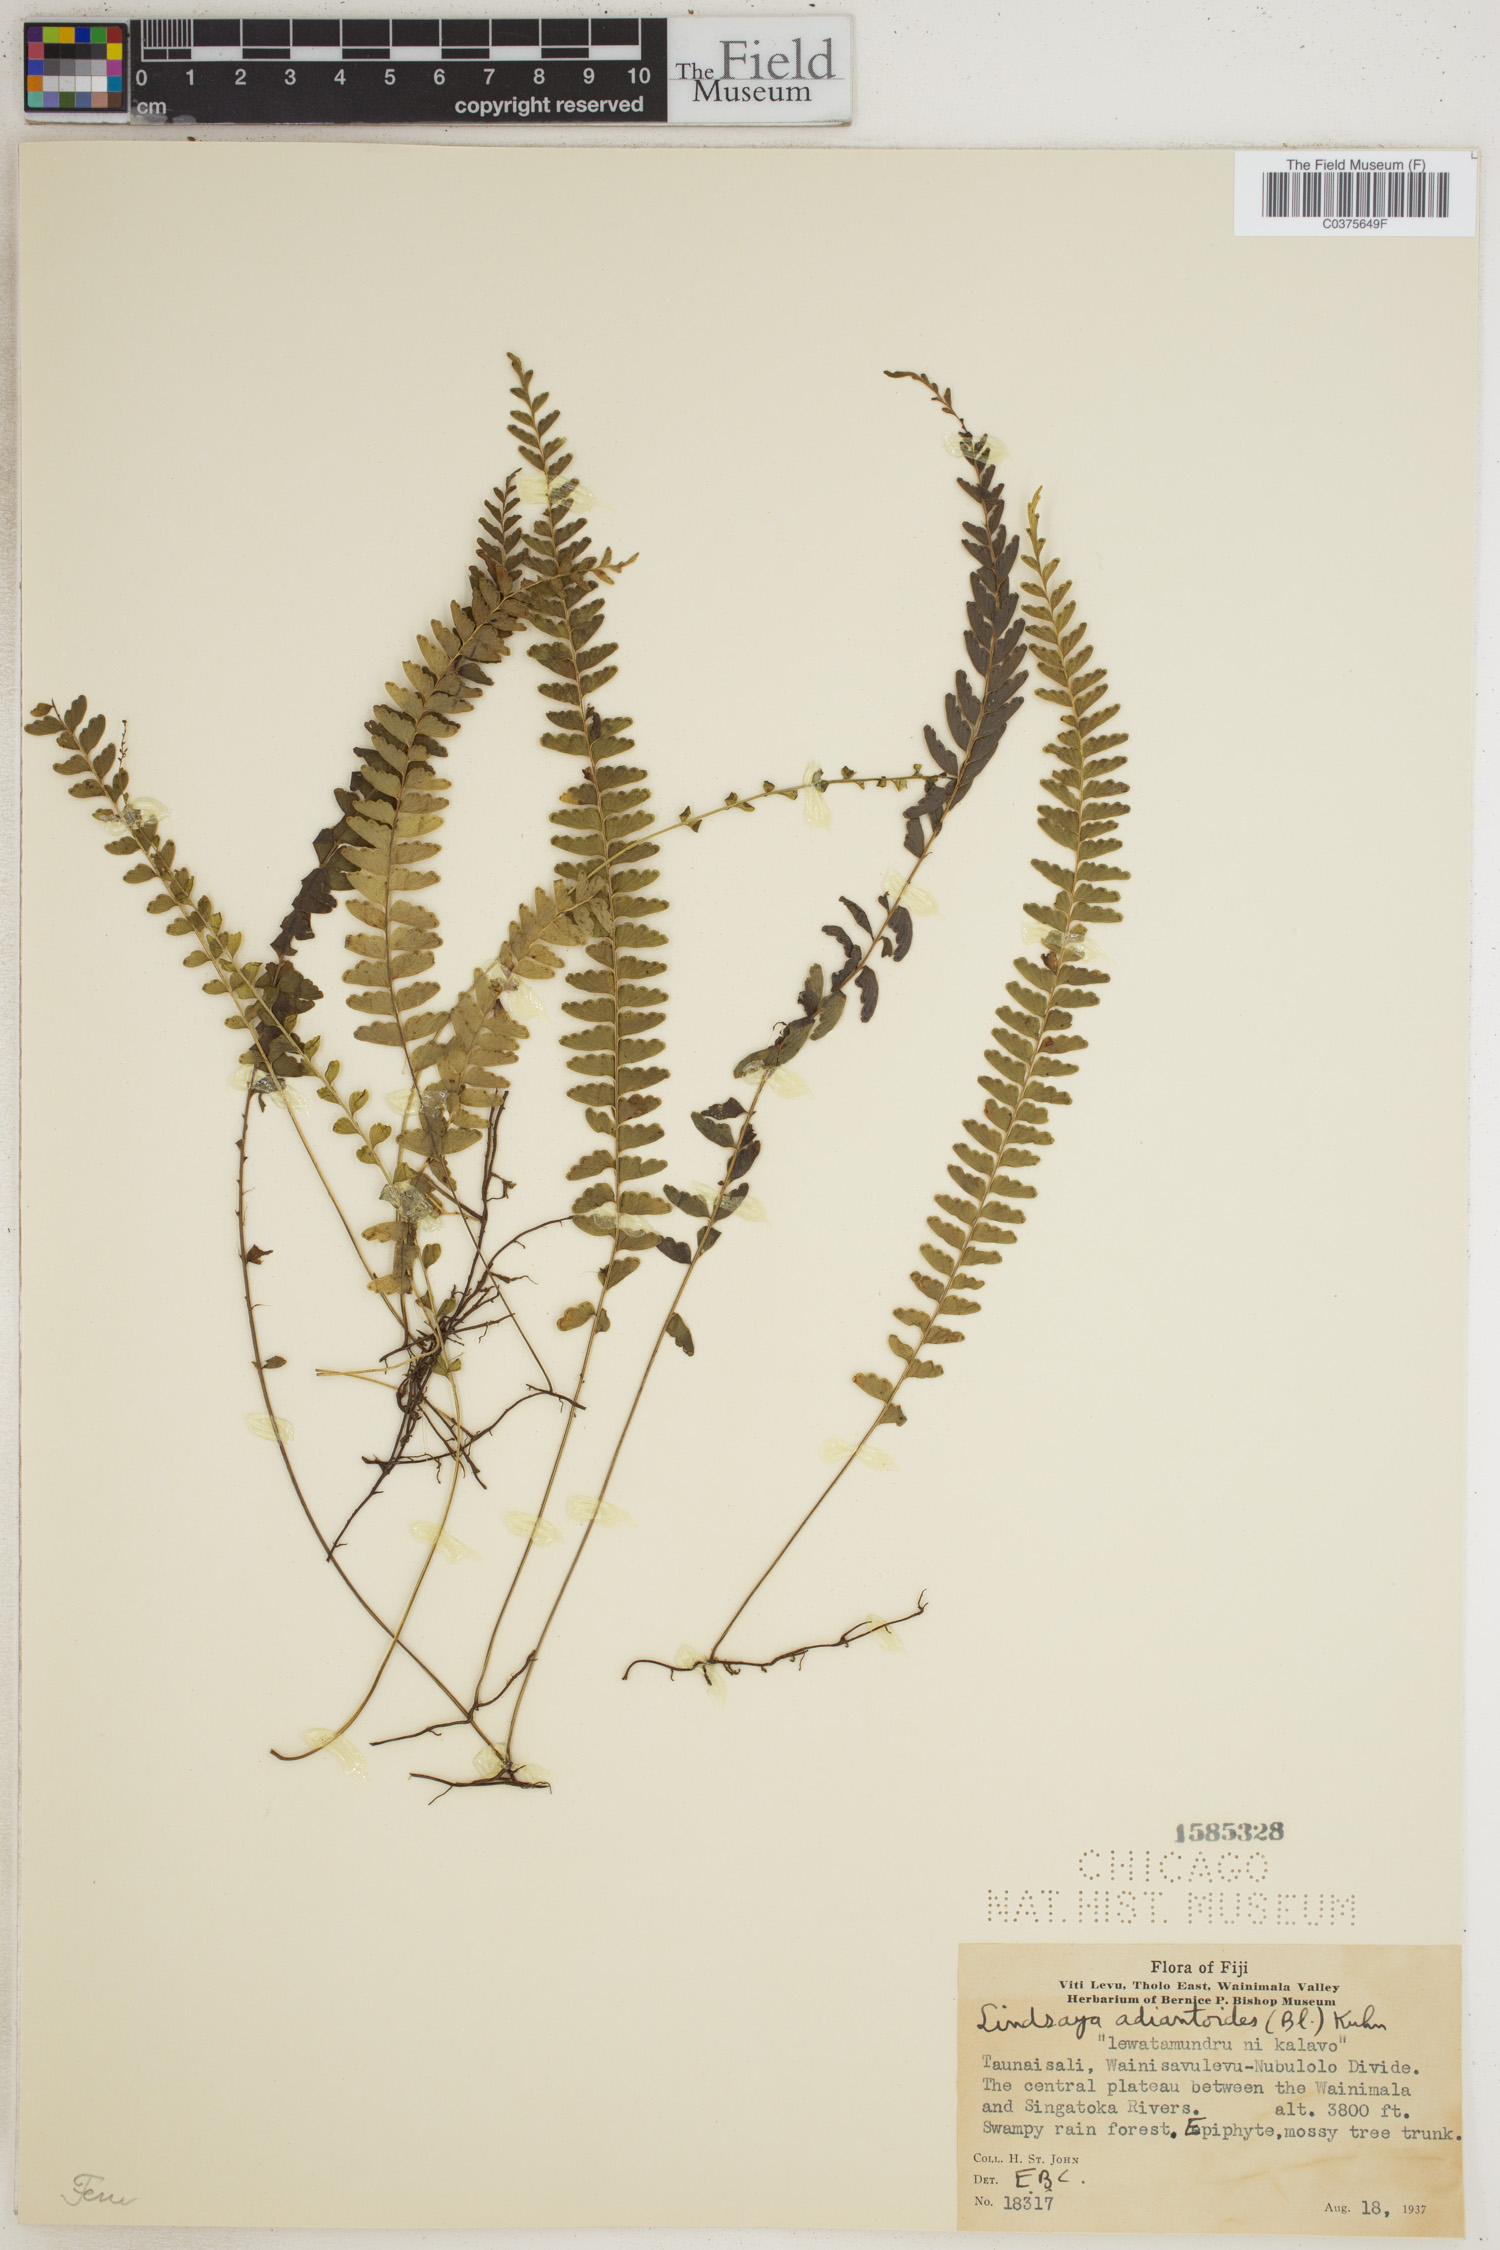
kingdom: Plantae
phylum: Tracheophyta
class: Polypodiopsida
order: Polypodiales
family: Lindsaeaceae
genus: Lindsaea
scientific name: Lindsaea pulchella
